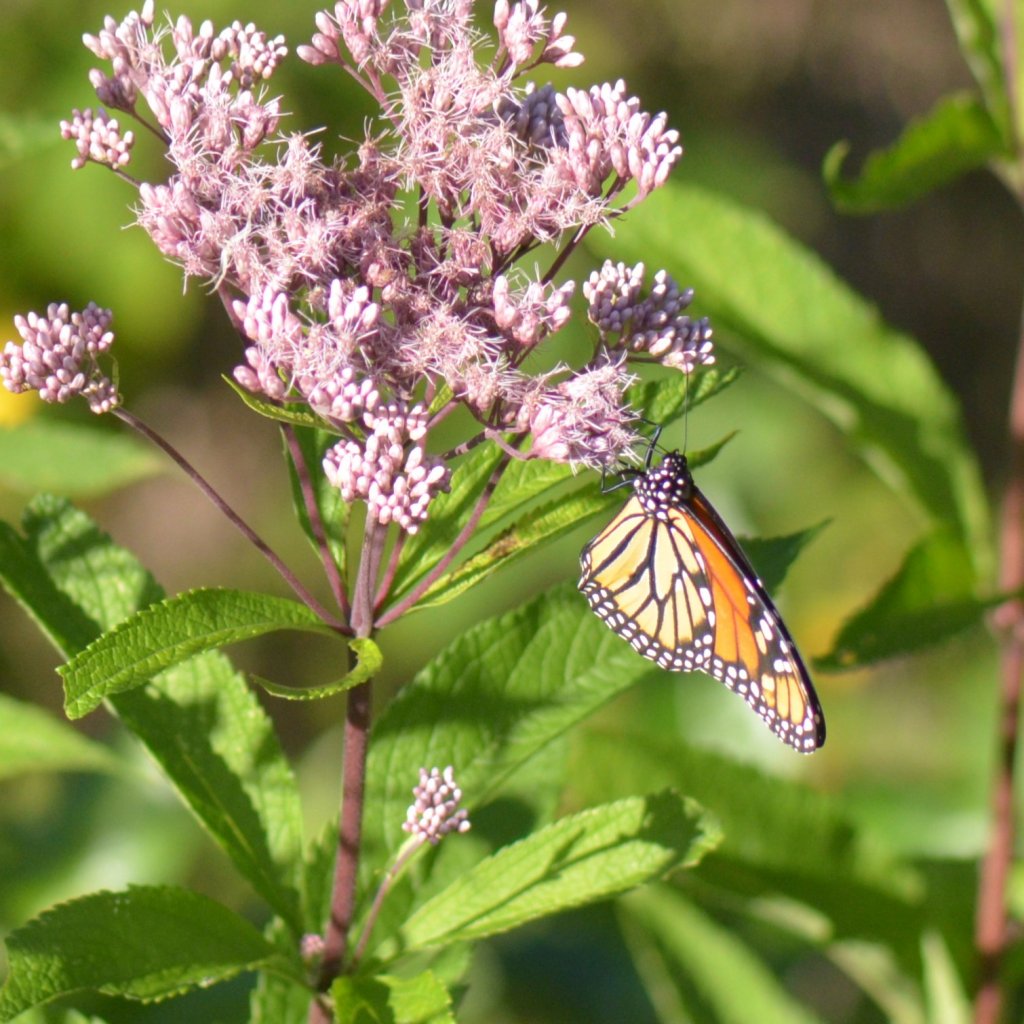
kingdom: Animalia
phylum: Arthropoda
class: Insecta
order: Lepidoptera
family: Nymphalidae
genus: Danaus
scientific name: Danaus plexippus
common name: Monarch
